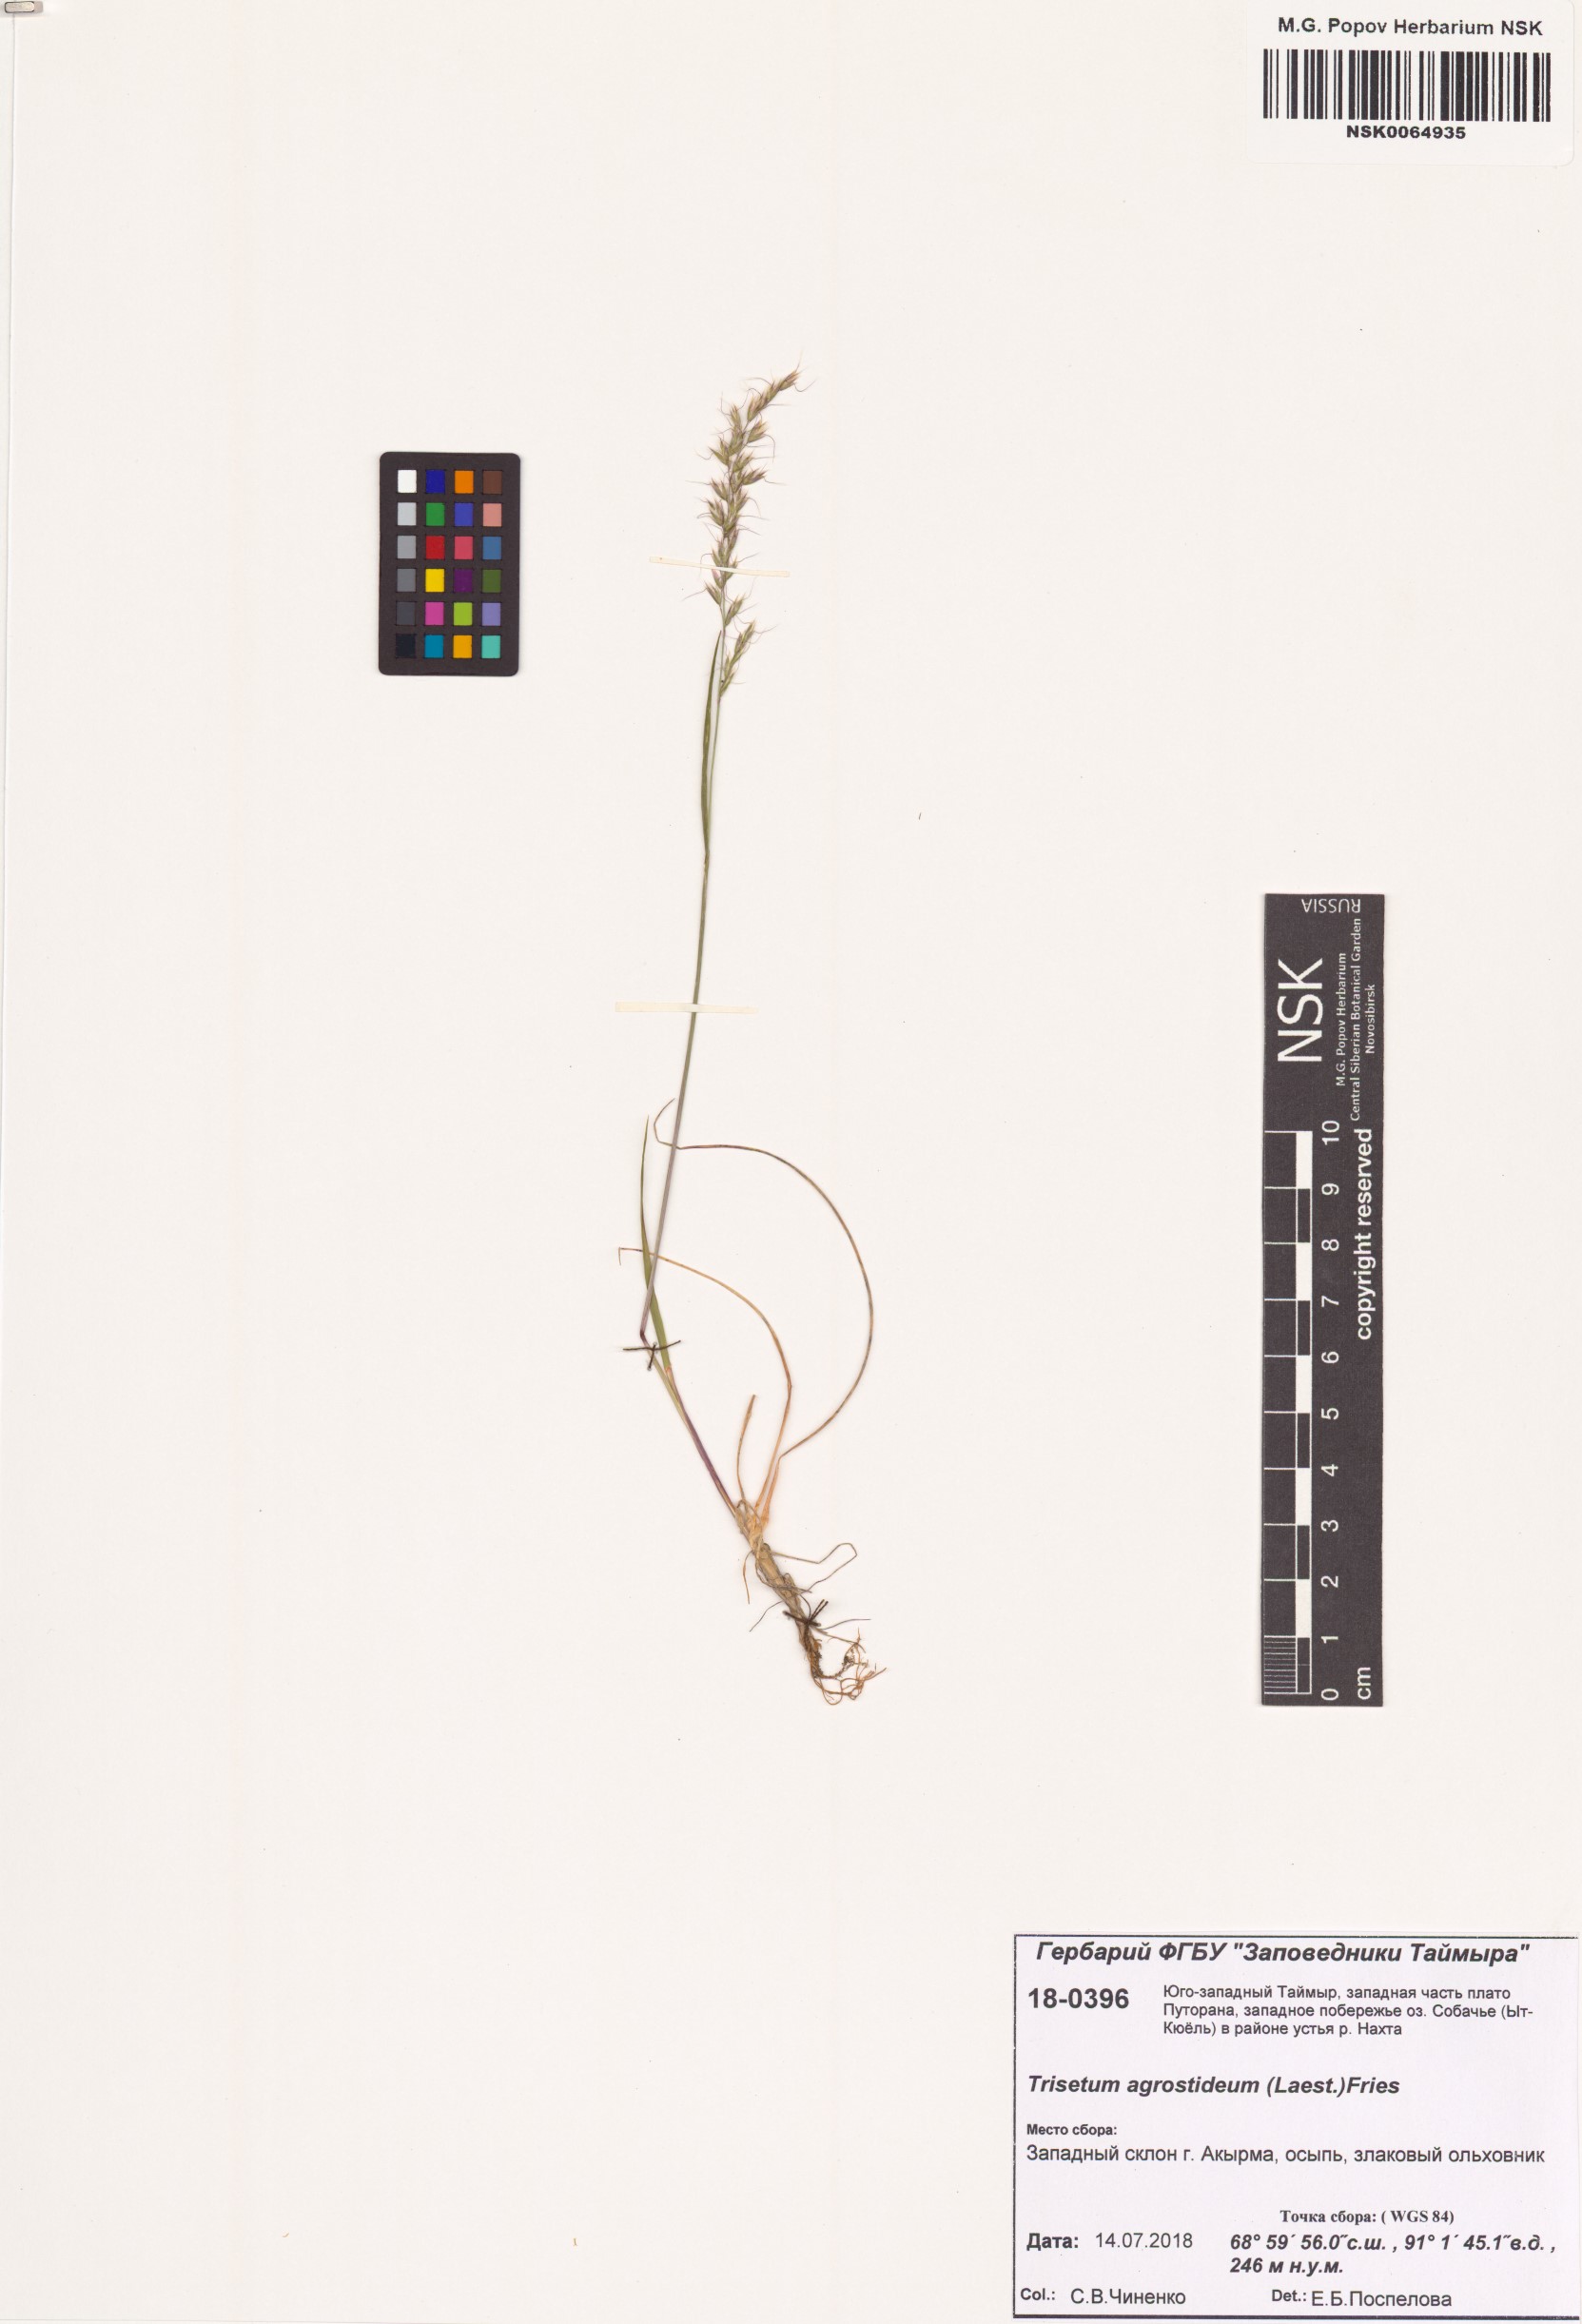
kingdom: Plantae
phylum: Tracheophyta
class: Liliopsida
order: Poales
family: Poaceae
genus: Koeleria
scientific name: Koeleria subalpestris
